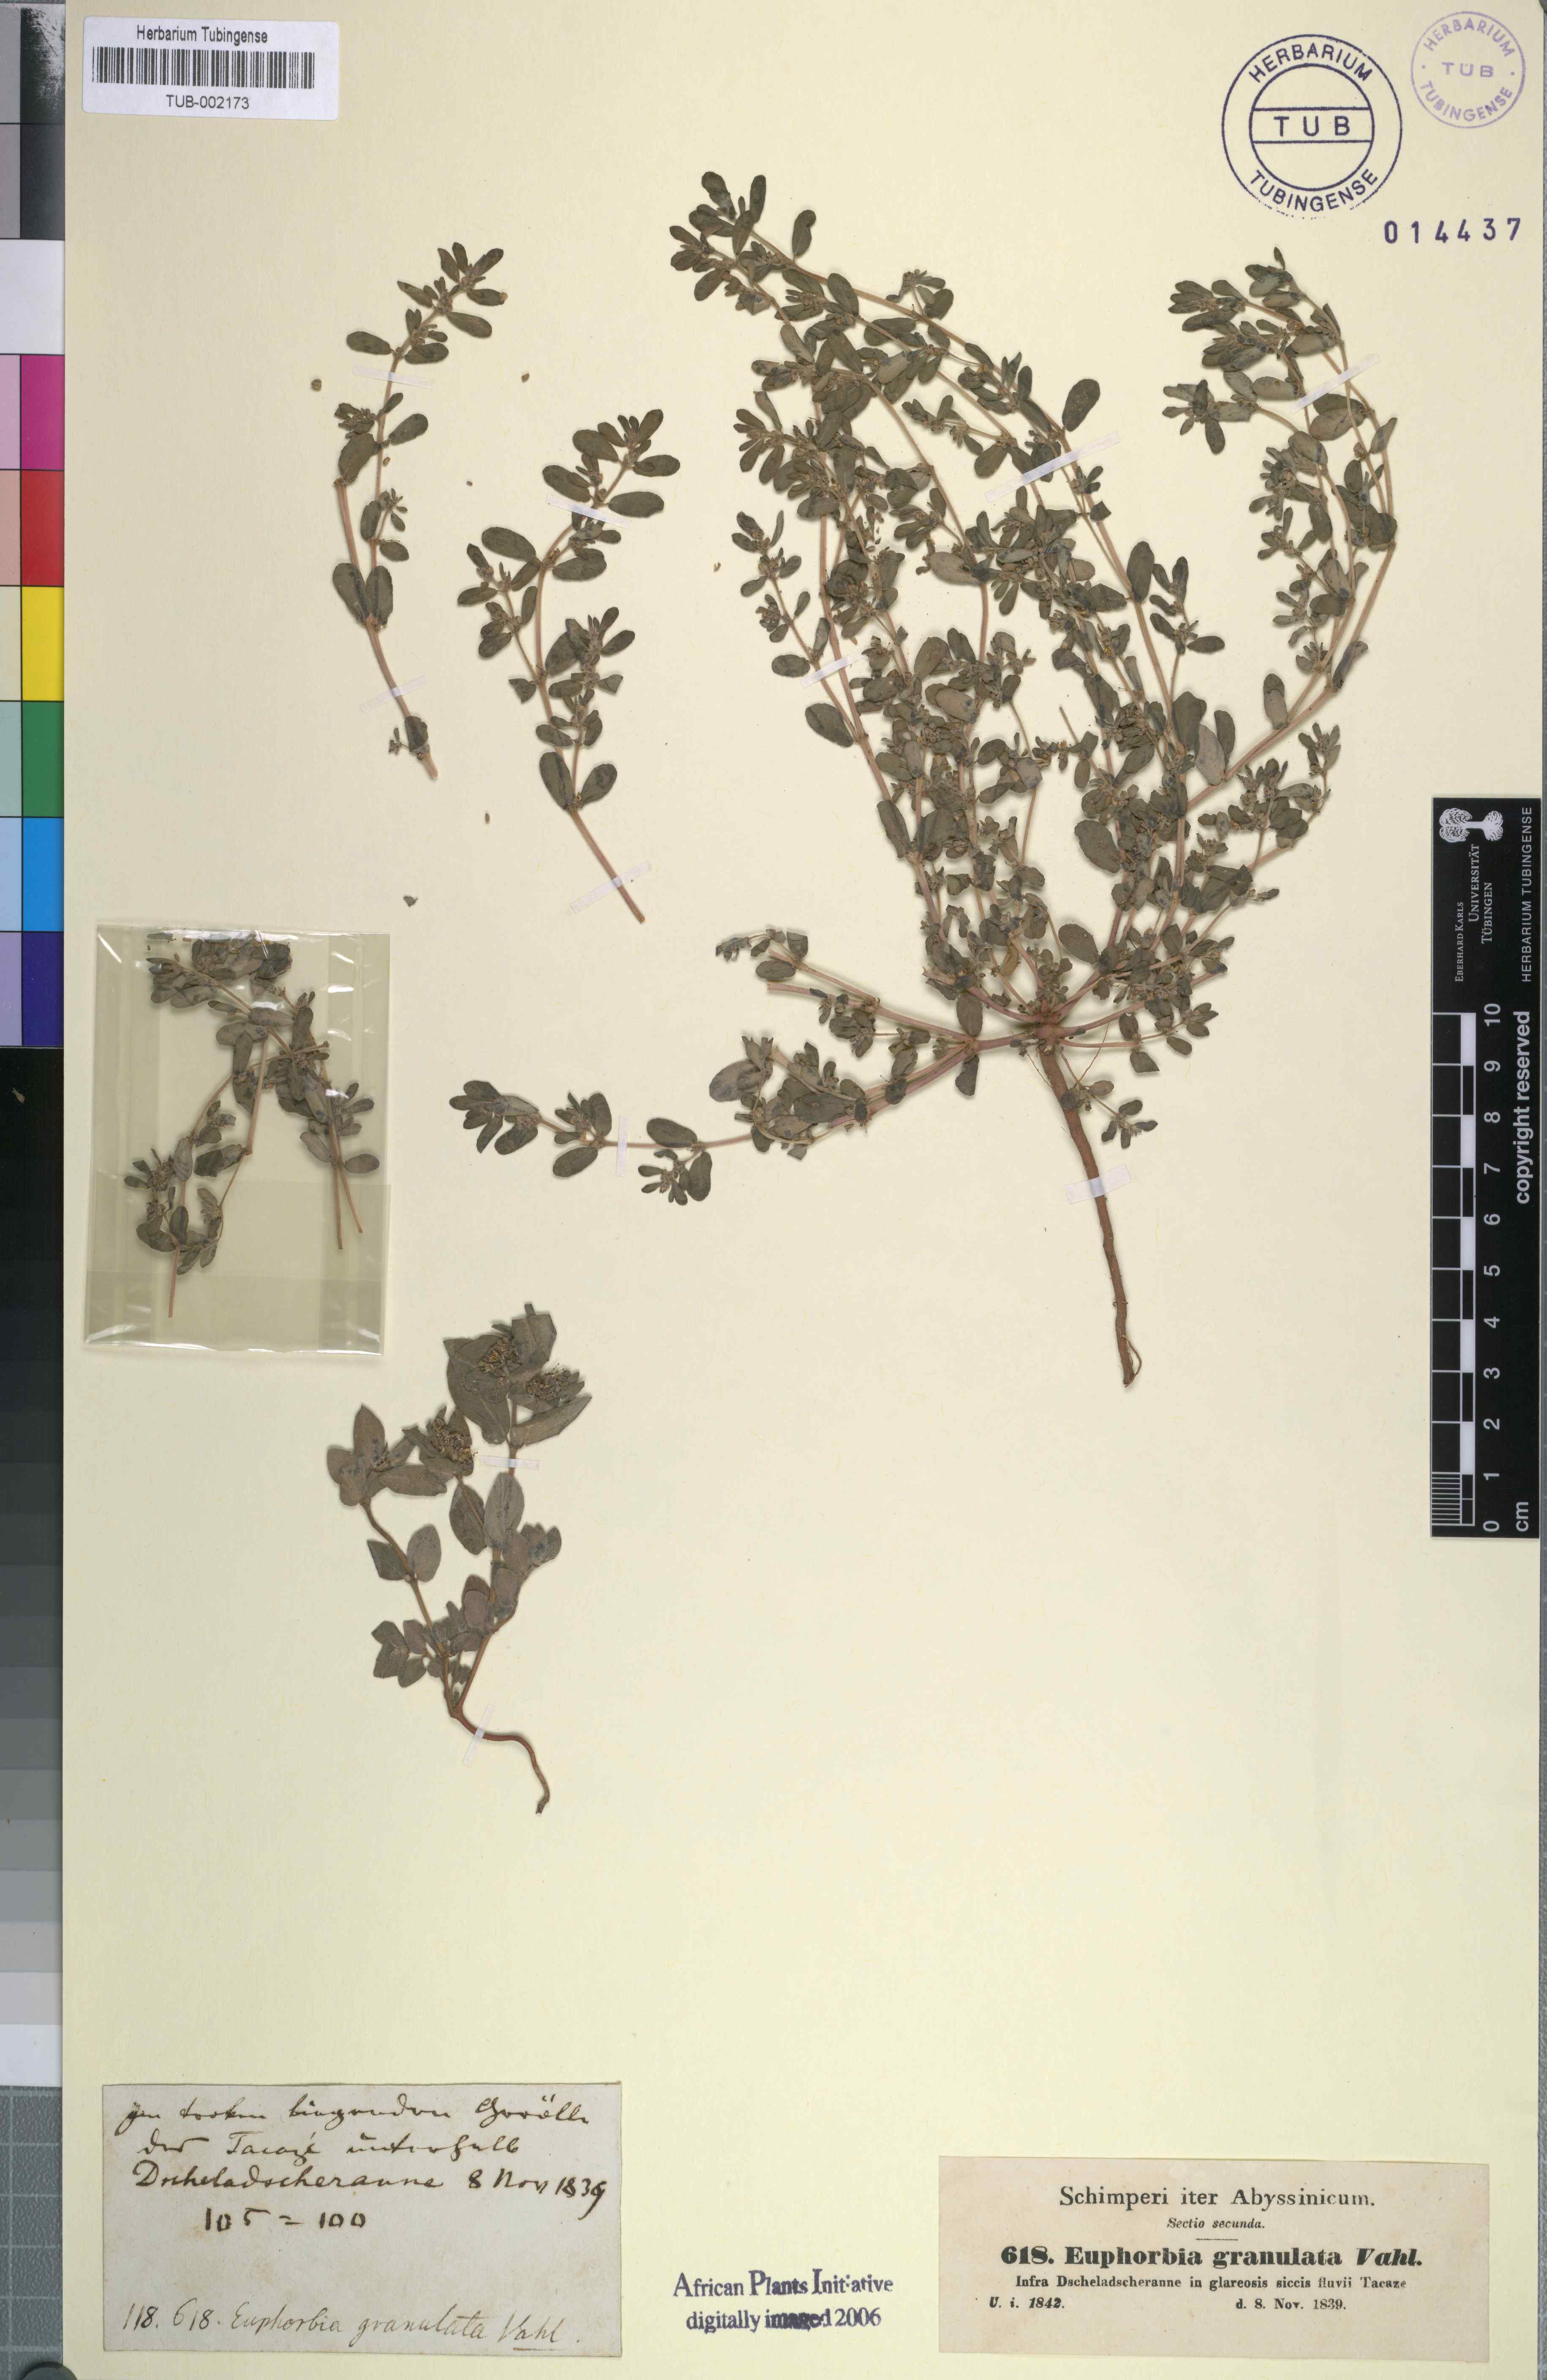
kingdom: Plantae
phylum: Tracheophyta
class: Magnoliopsida
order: Malpighiales
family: Euphorbiaceae
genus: Euphorbia
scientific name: Euphorbia forsskalii
